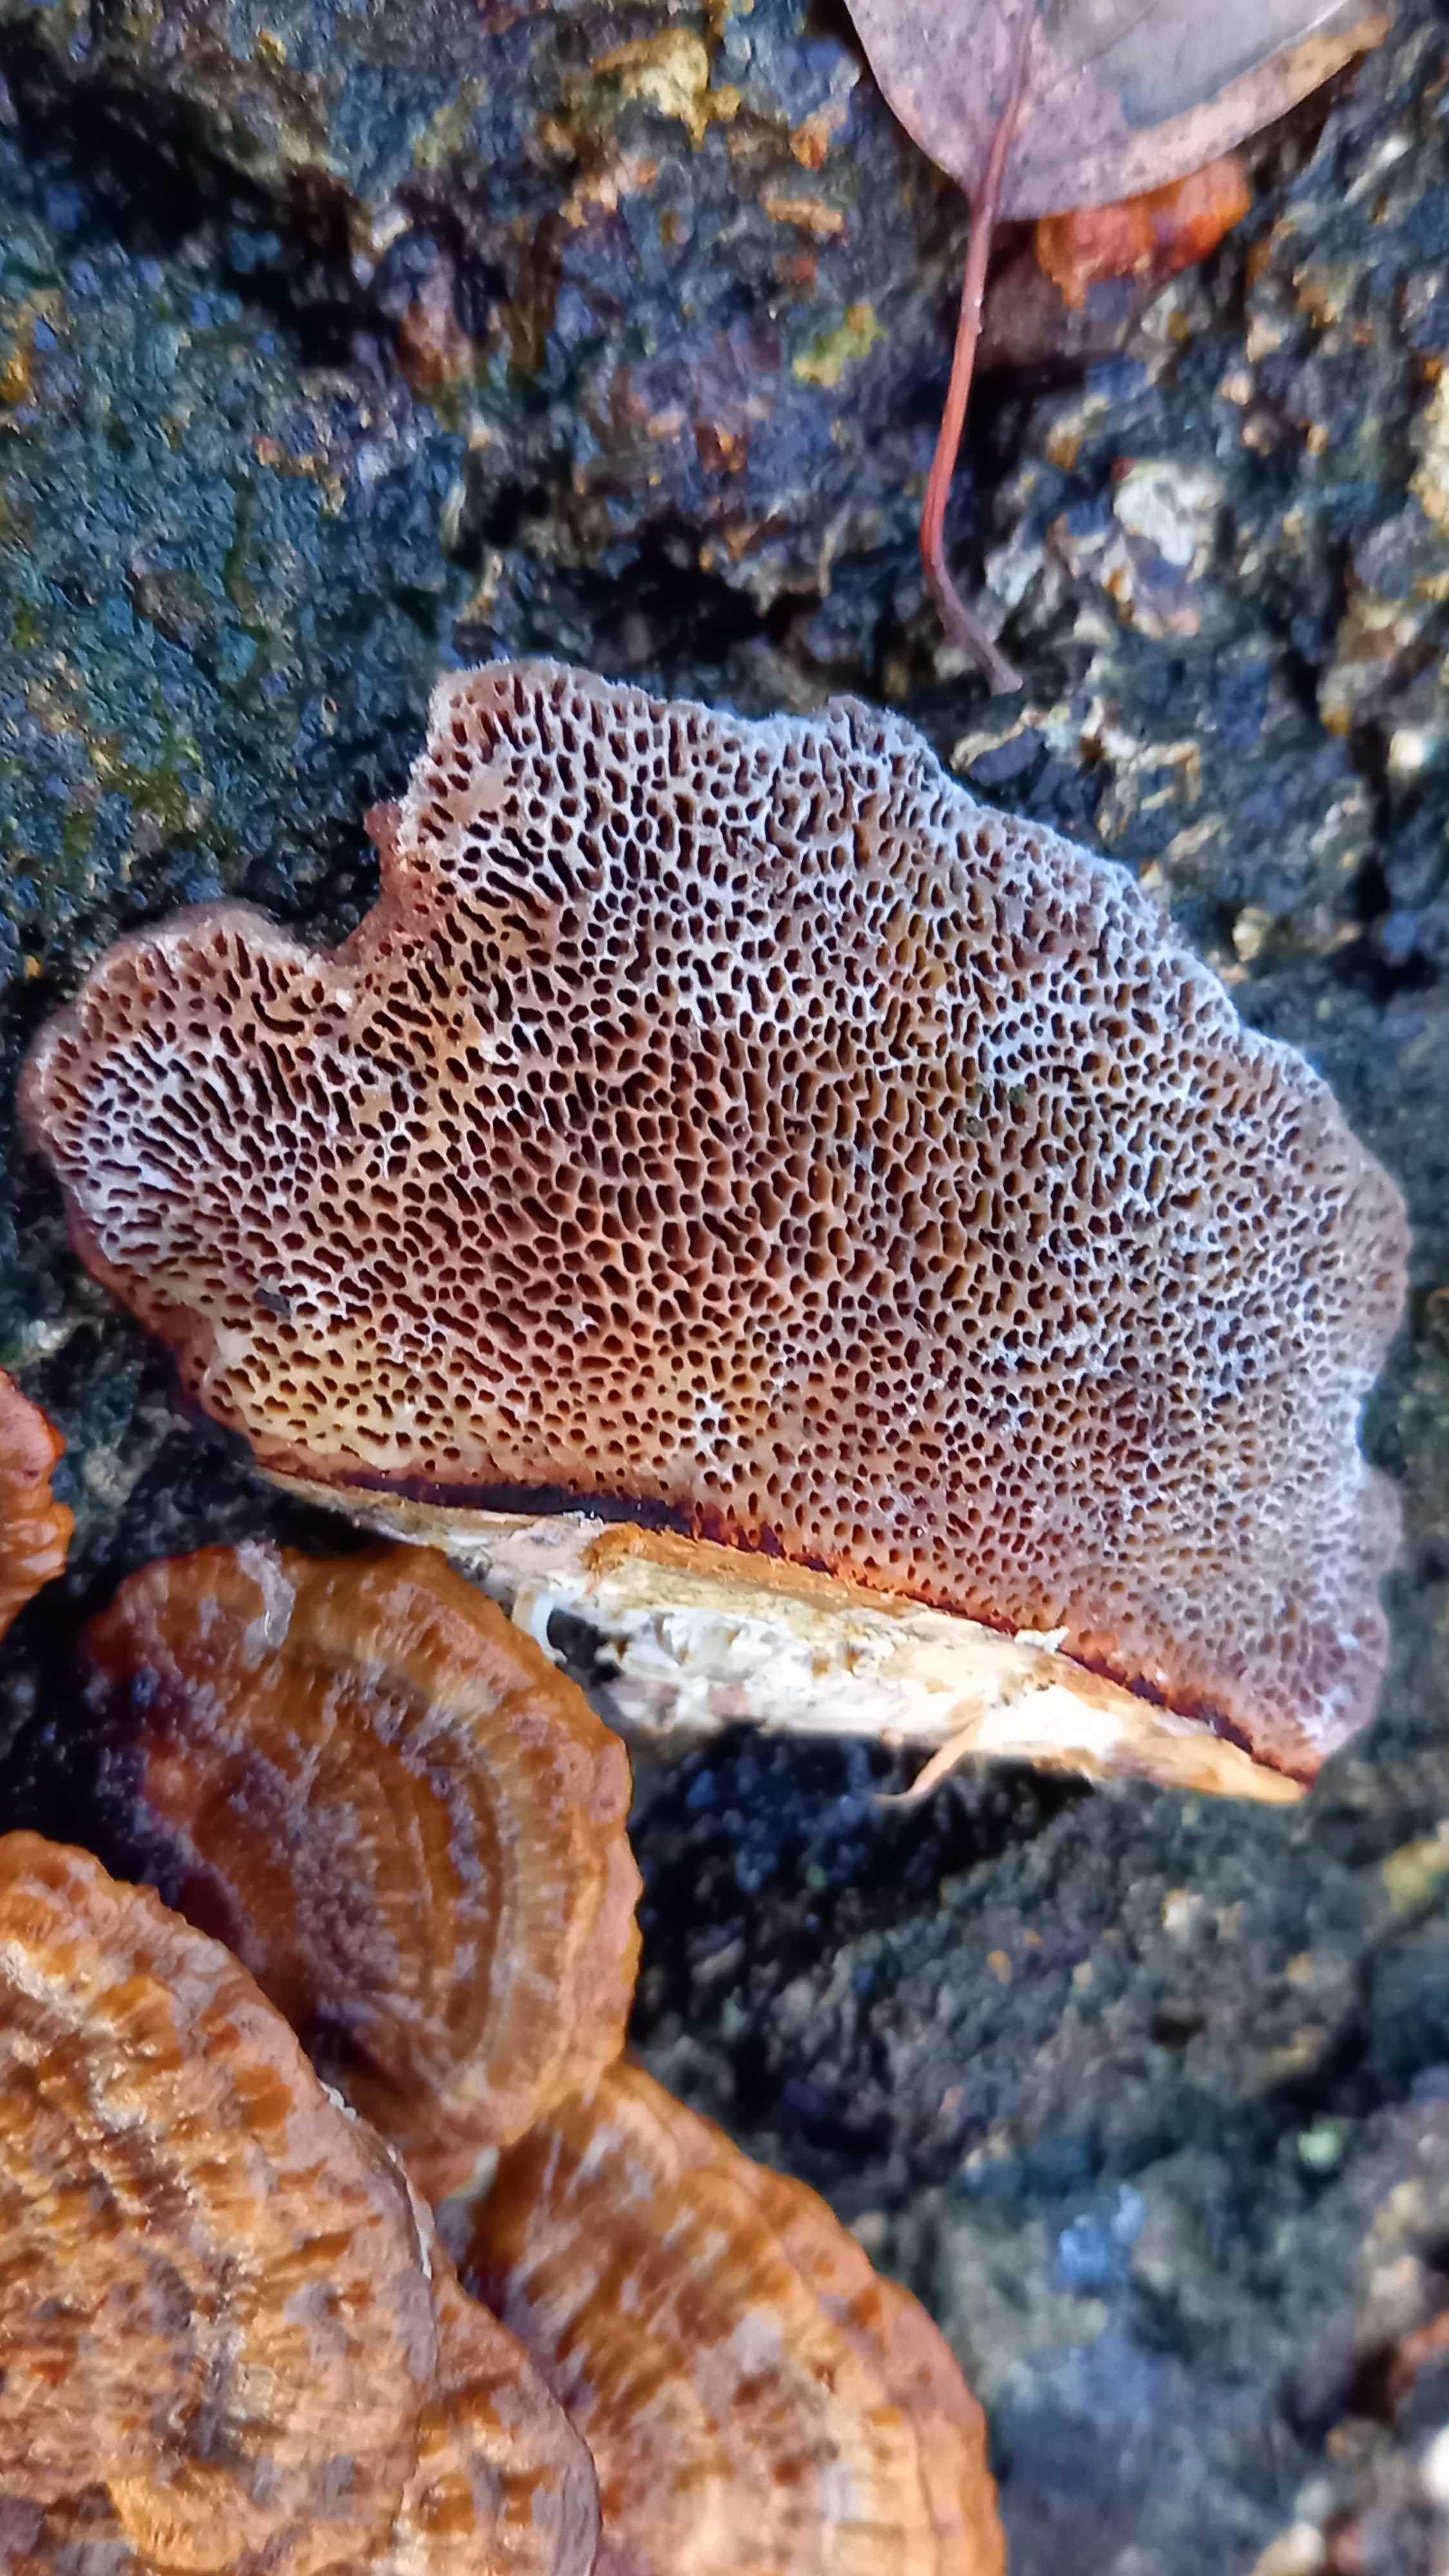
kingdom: Fungi
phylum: Basidiomycota
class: Agaricomycetes
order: Polyporales
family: Polyporaceae
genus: Daedaleopsis
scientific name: Daedaleopsis confragosa
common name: rødmende læderporesvamp
